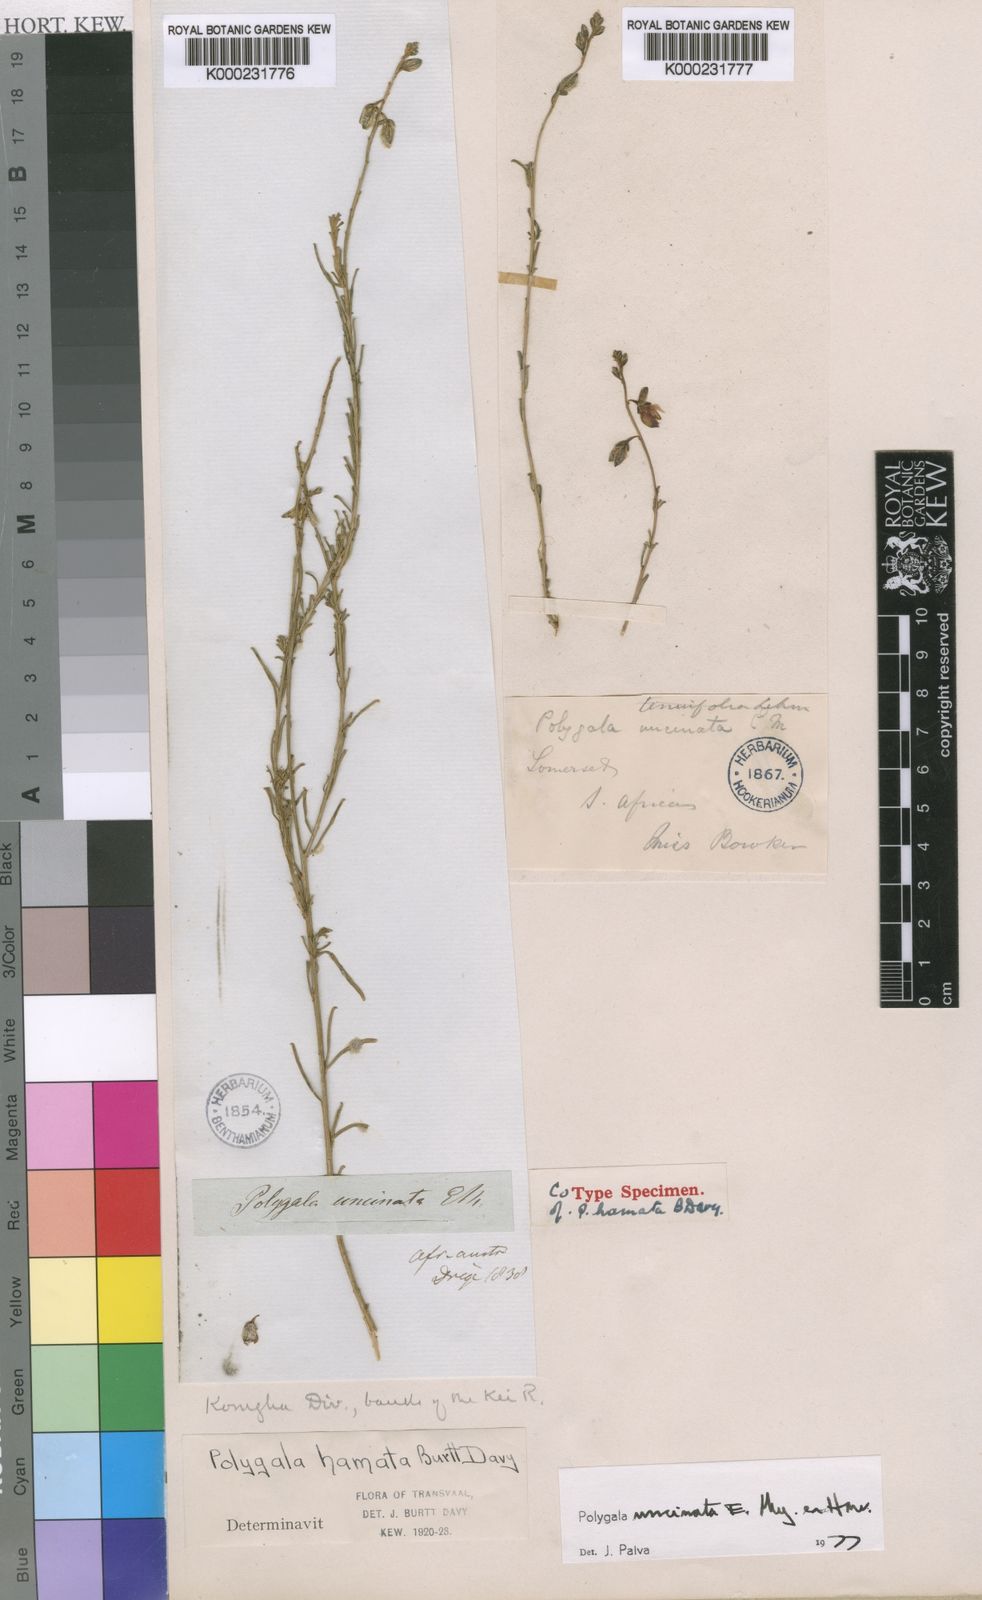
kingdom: Plantae
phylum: Tracheophyta
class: Magnoliopsida
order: Fabales
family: Polygalaceae
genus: Polygala
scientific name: Polygala
